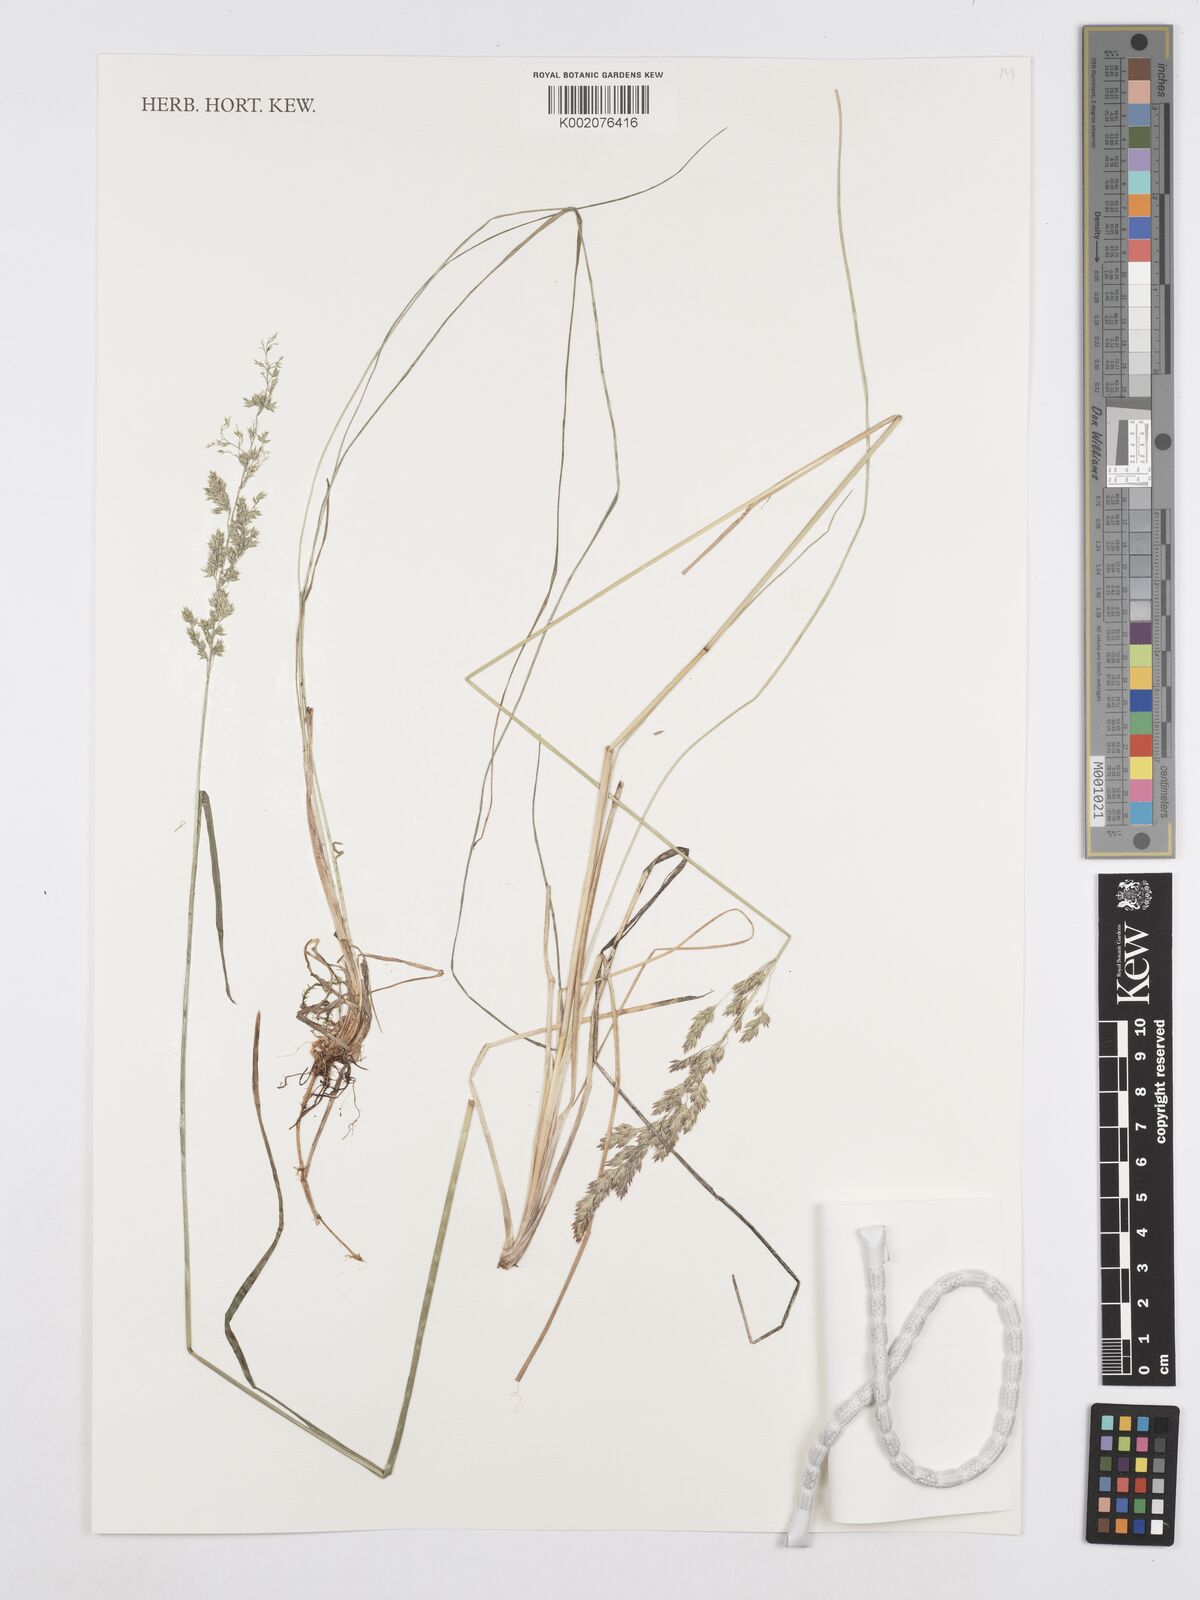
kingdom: Plantae
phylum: Tracheophyta
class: Liliopsida
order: Poales
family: Poaceae
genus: Poa
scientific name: Poa angustifolia
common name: Narrow-leaved meadow-grass
